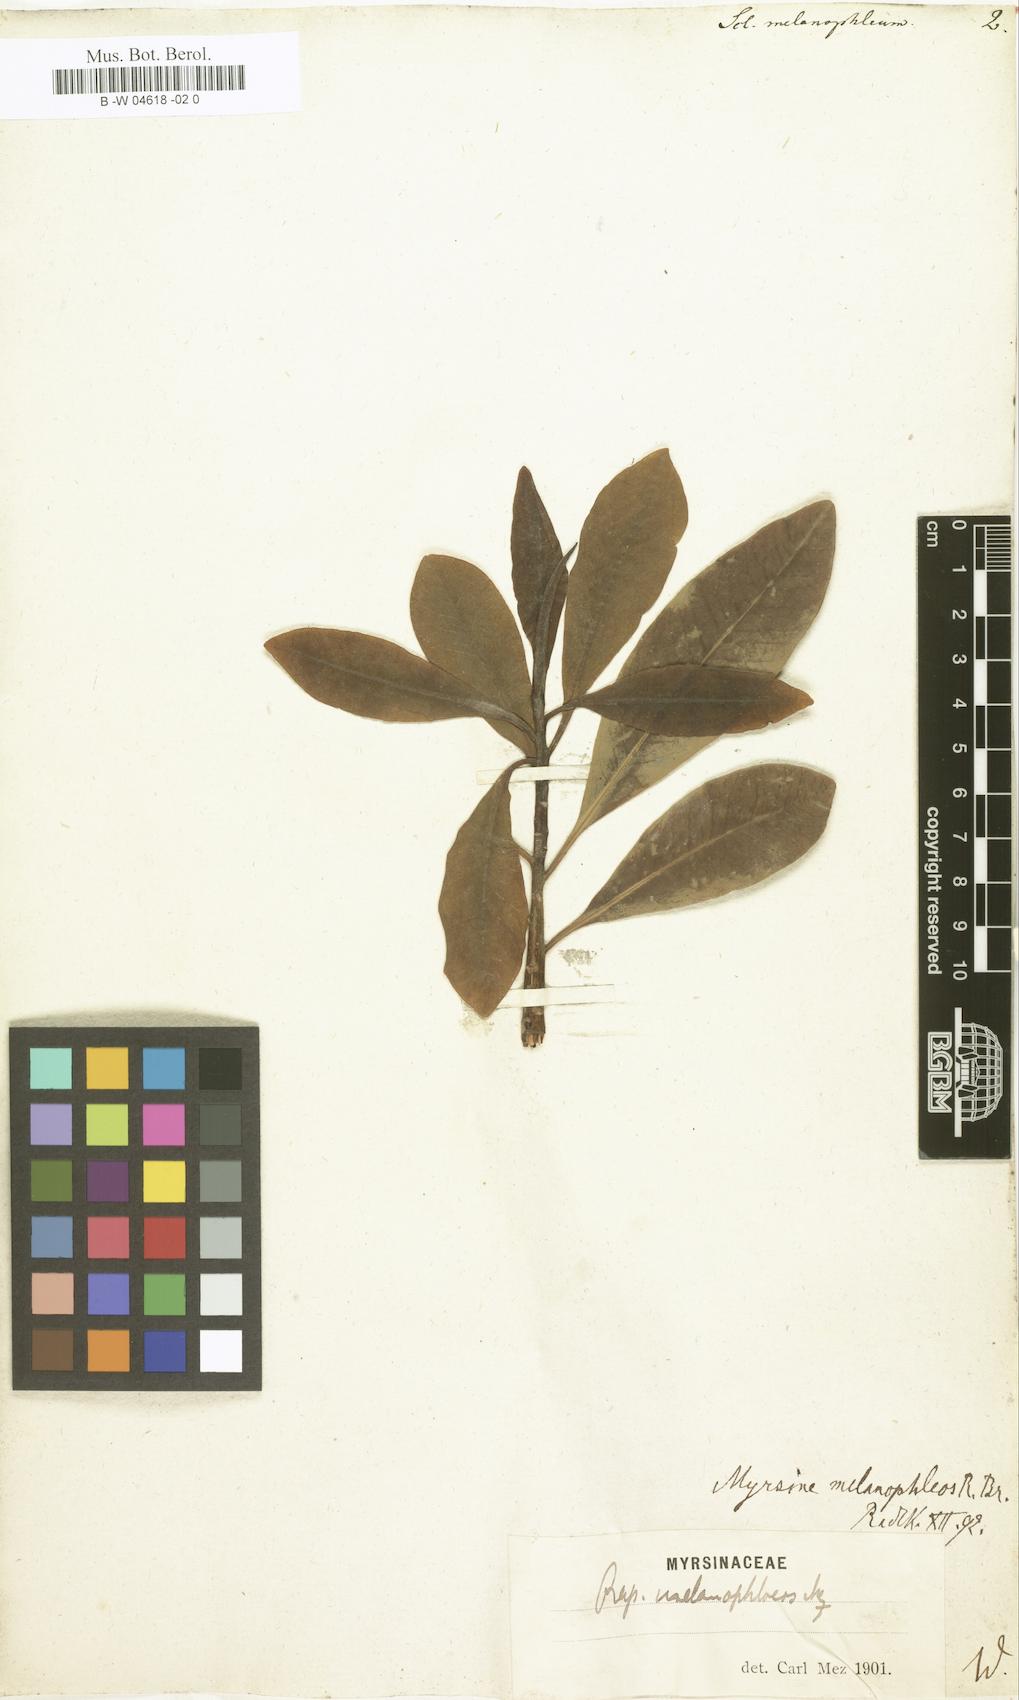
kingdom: Plantae
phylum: Tracheophyta
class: Magnoliopsida
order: Ericales
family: Sapotaceae
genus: Scleroxylon
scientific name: Scleroxylon
